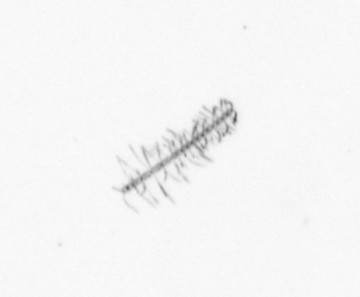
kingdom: Chromista
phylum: Ochrophyta
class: Bacillariophyceae
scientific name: Bacillariophyceae
